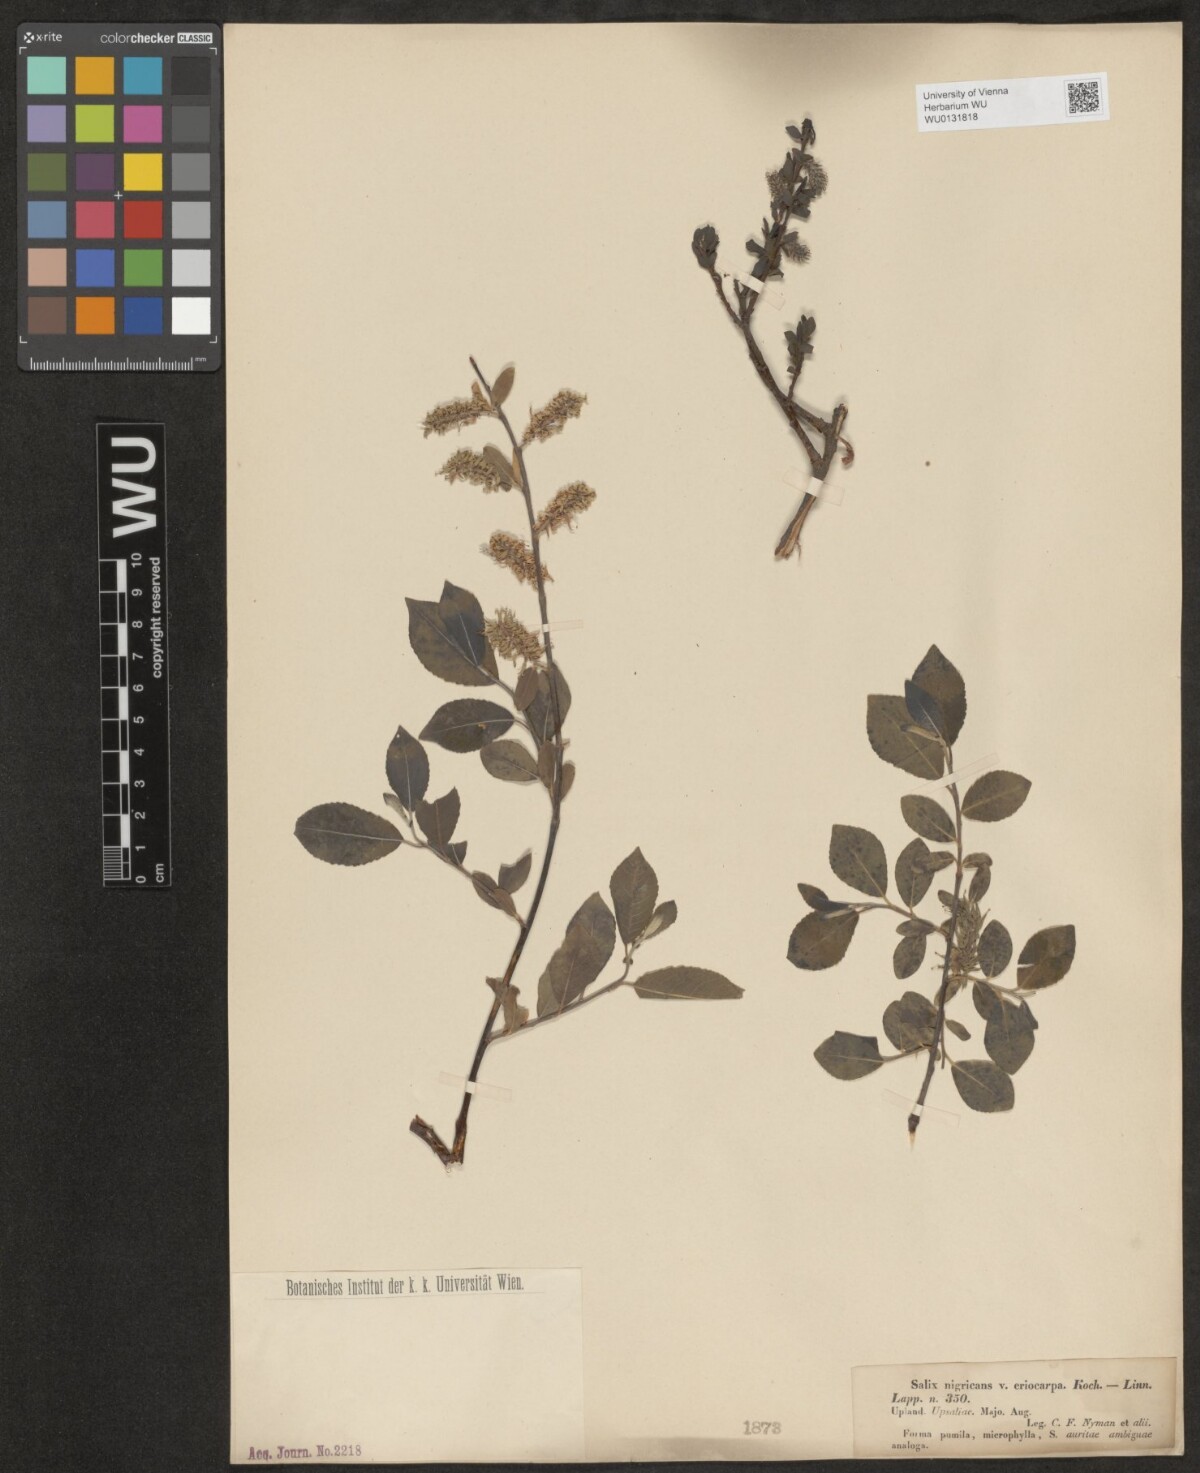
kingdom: Plantae
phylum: Tracheophyta
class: Magnoliopsida
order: Malpighiales
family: Salicaceae
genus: Salix
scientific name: Salix myrsinifolia
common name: Dark-leaved willow
